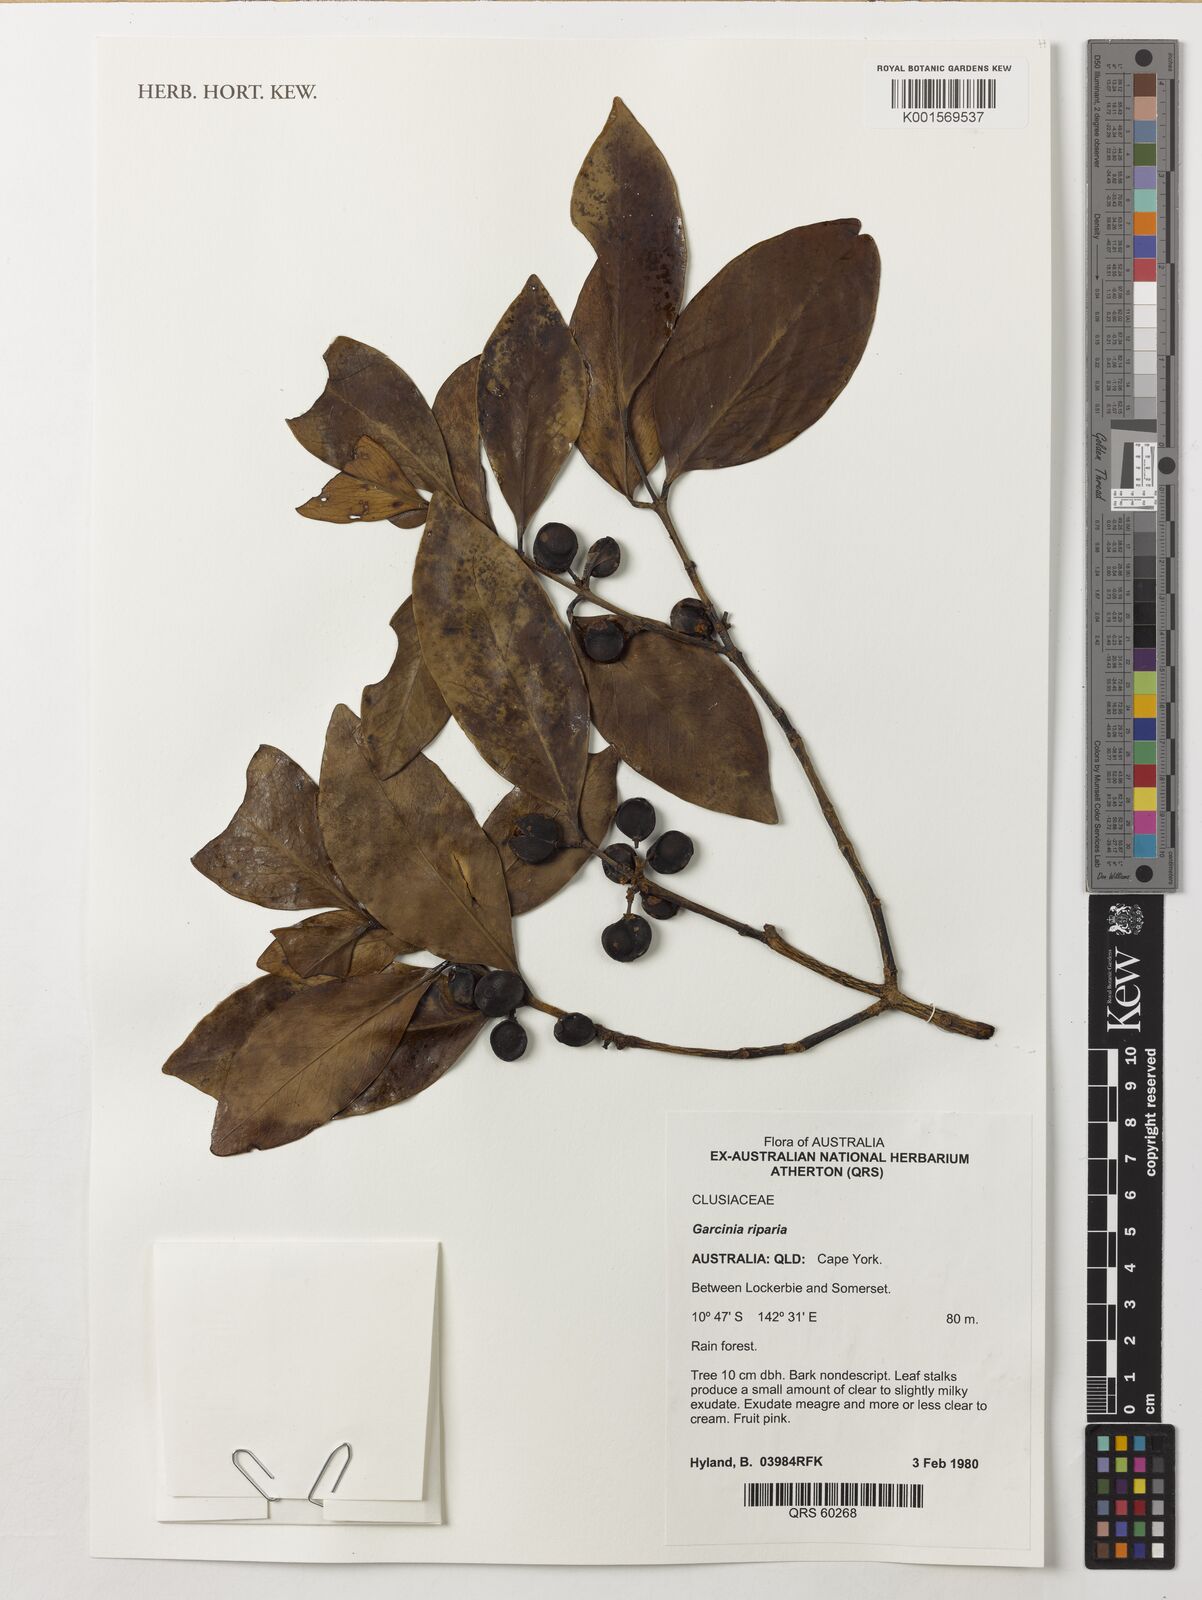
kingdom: Plantae
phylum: Tracheophyta
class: Magnoliopsida
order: Malpighiales
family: Clusiaceae
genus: Garcinia
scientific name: Garcinia riparia
